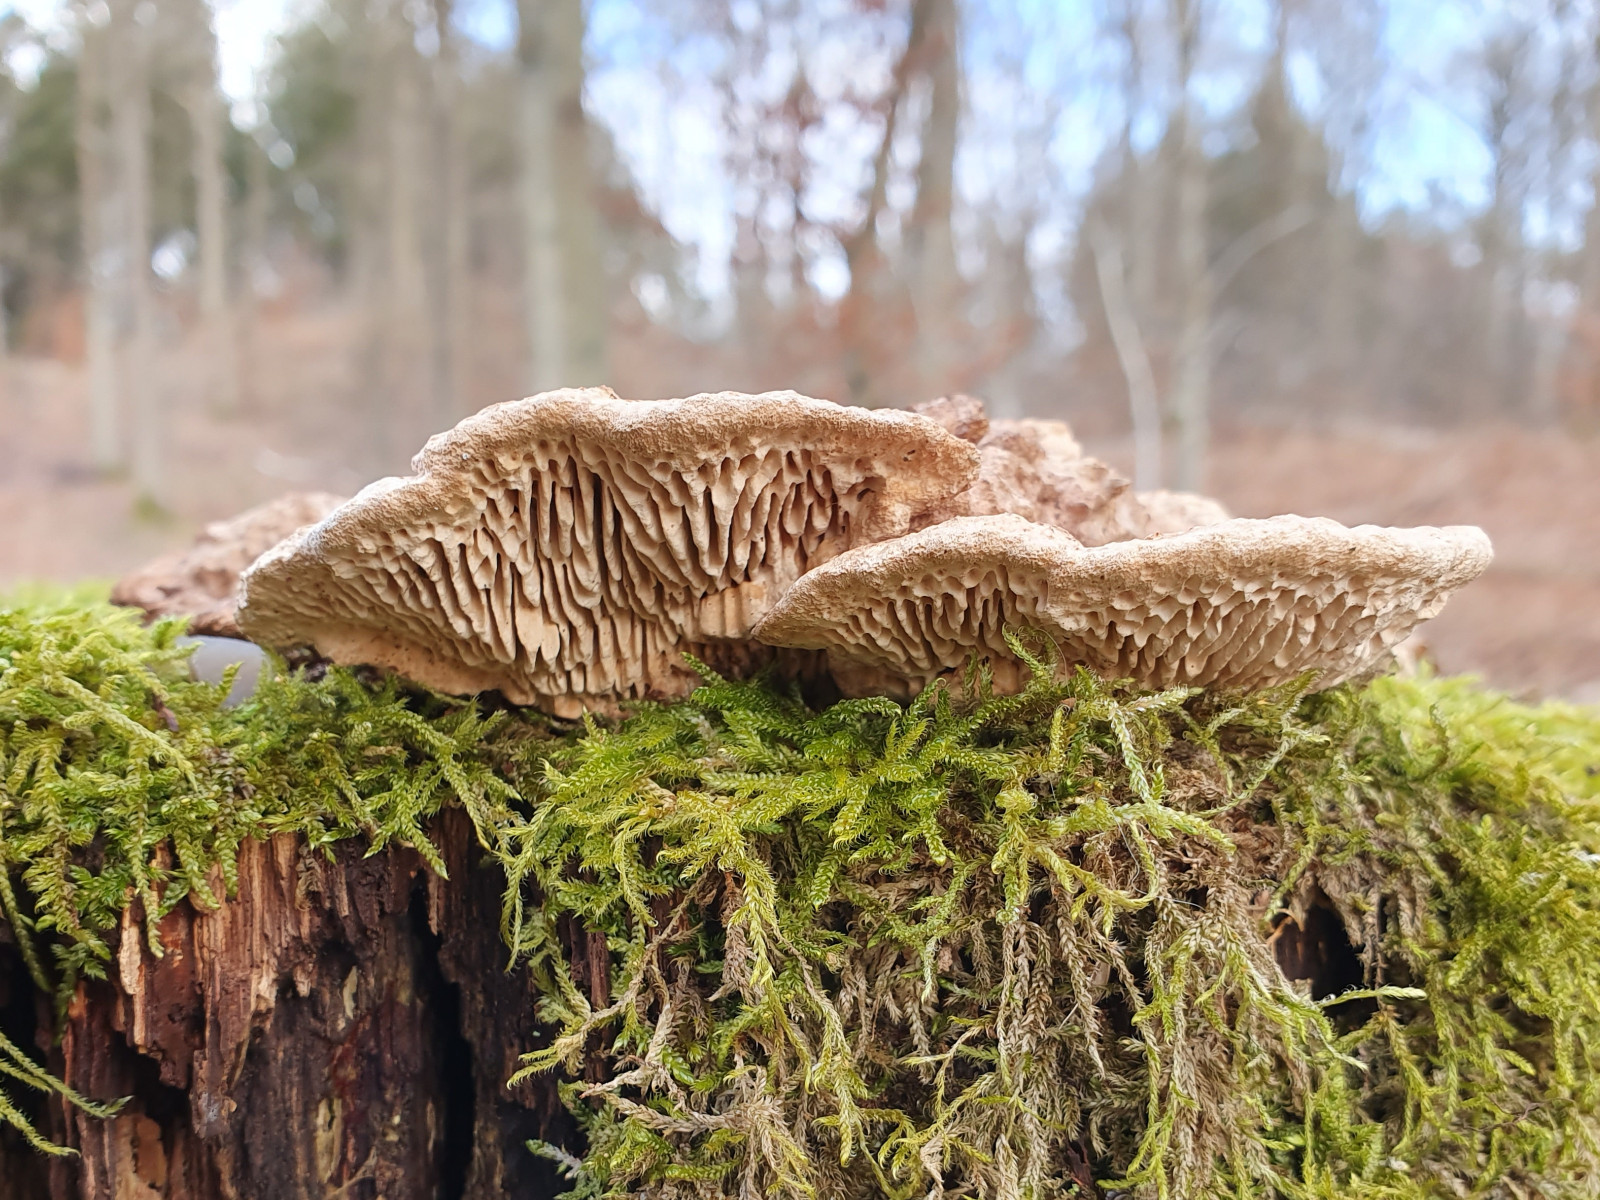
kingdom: Fungi
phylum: Basidiomycota
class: Agaricomycetes
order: Polyporales
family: Fomitopsidaceae
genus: Daedalea
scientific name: Daedalea quercina
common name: ege-labyrintsvamp
